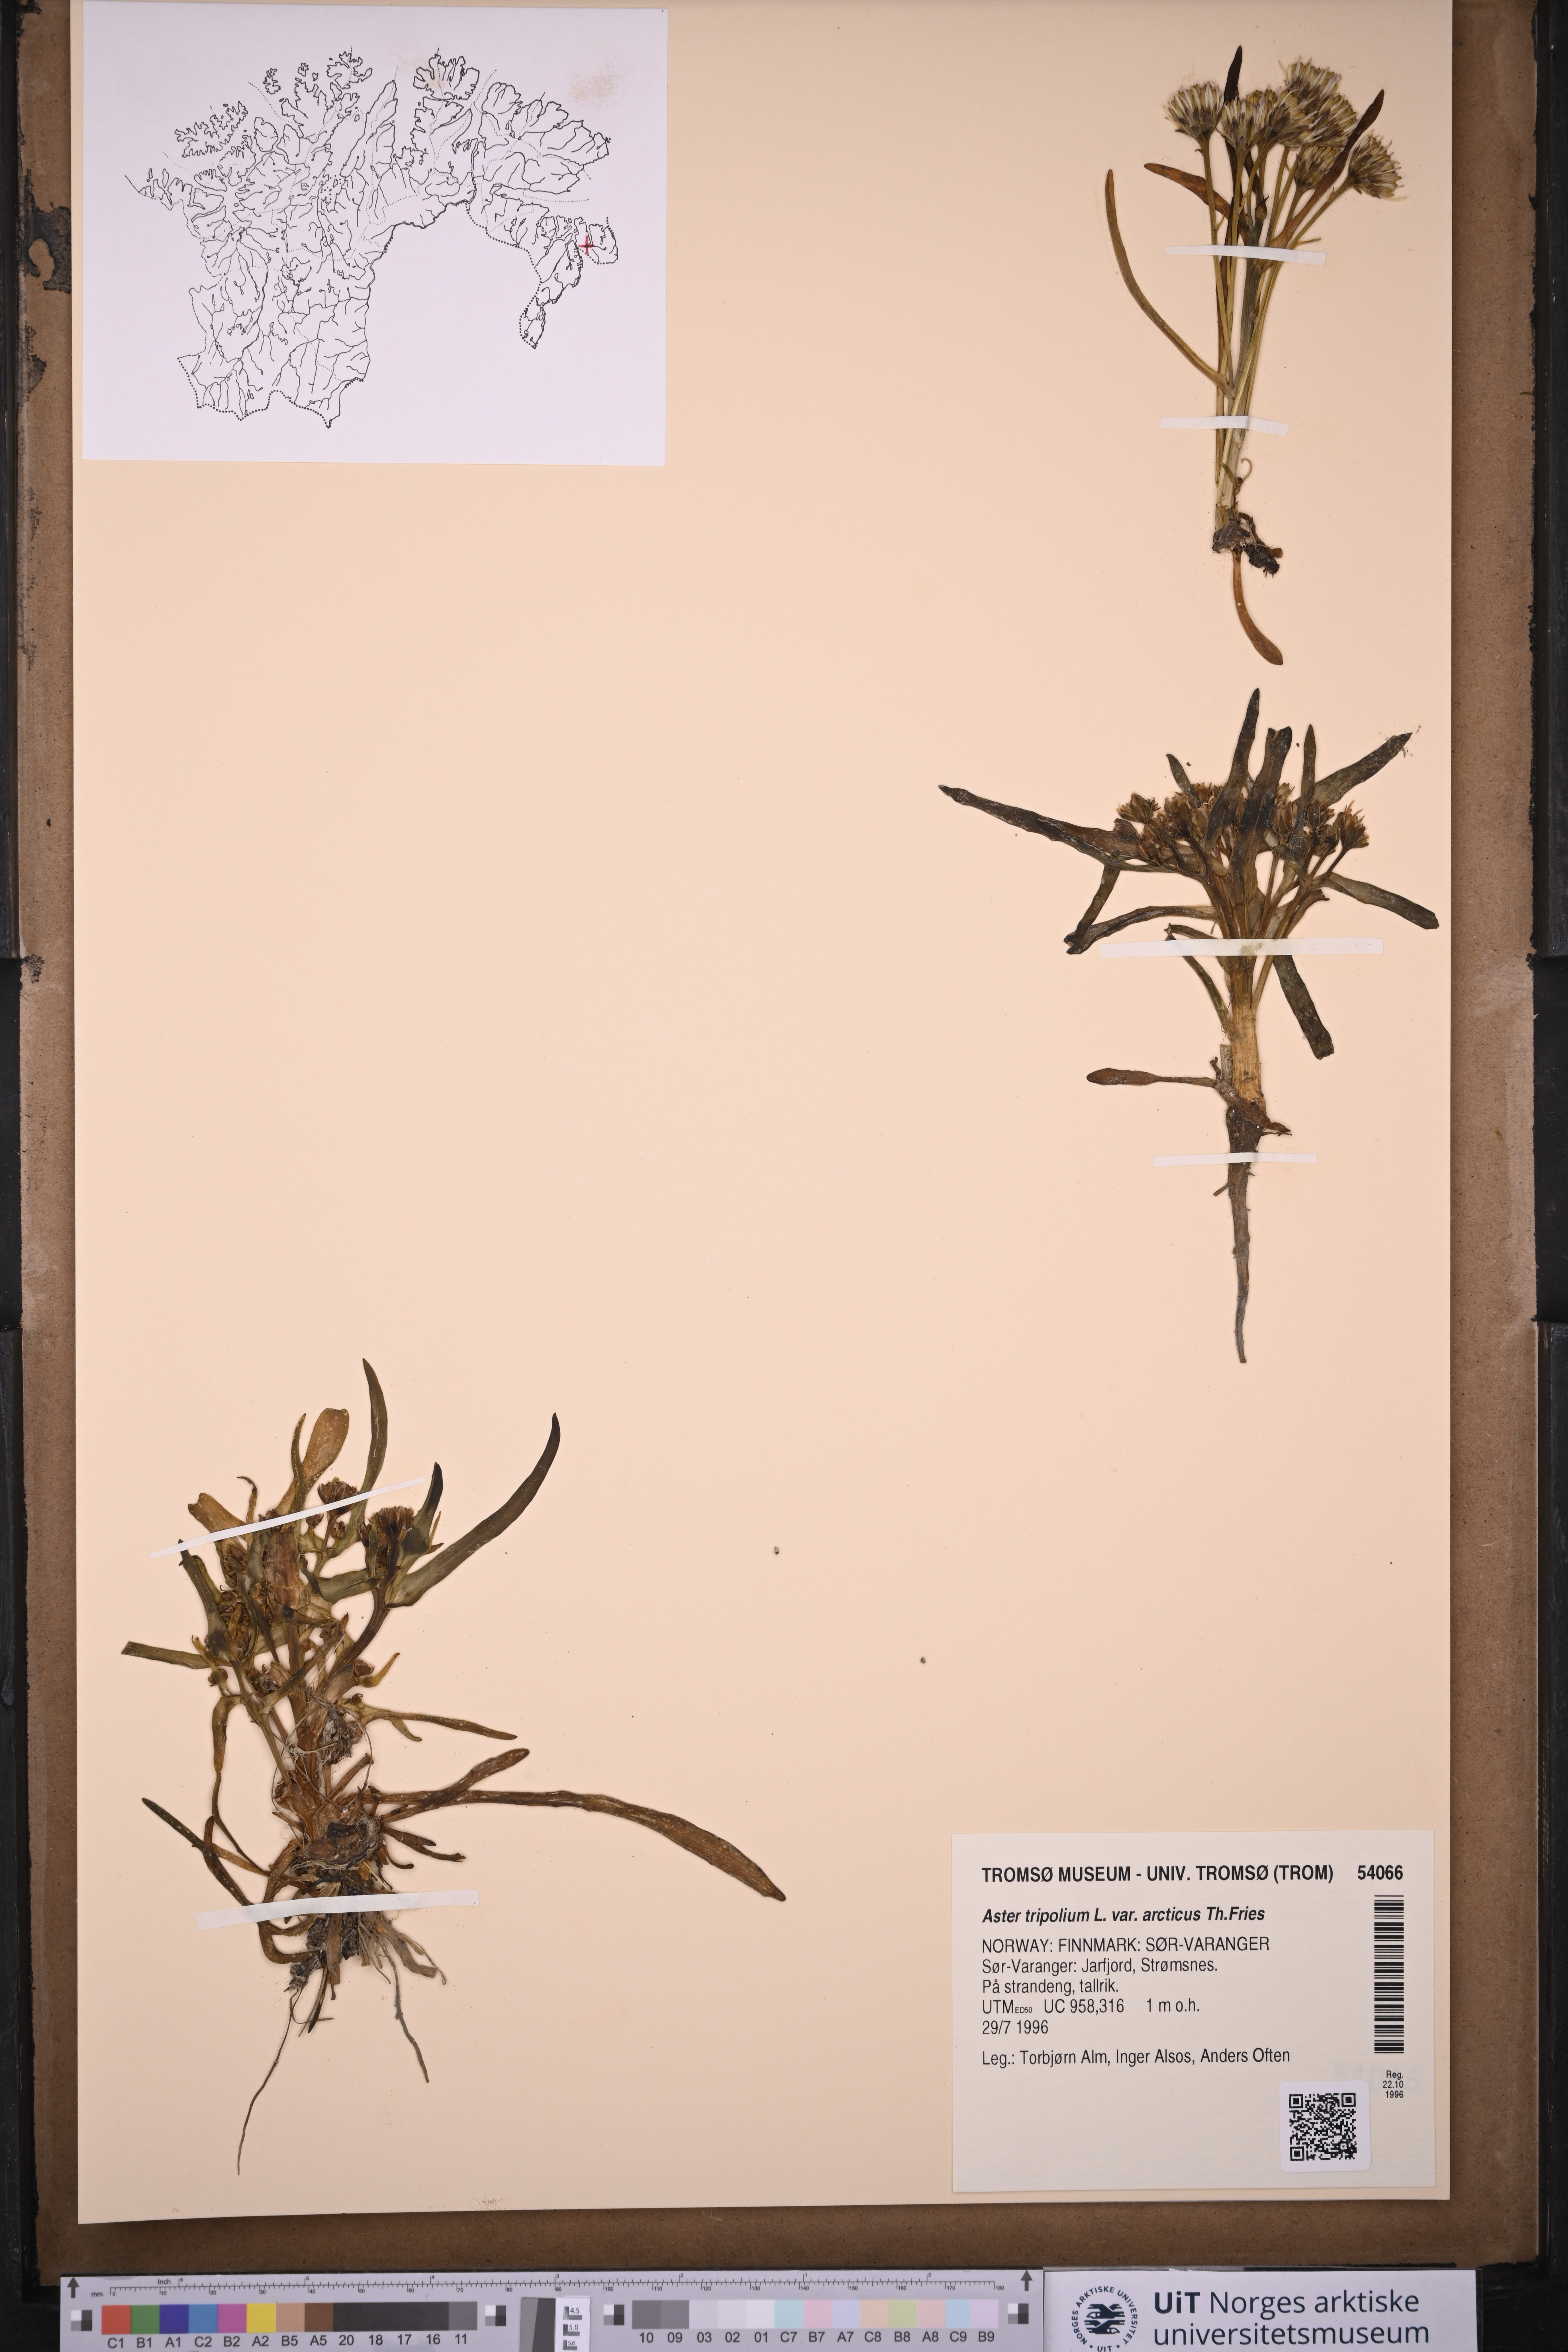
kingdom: Plantae
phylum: Tracheophyta
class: Magnoliopsida
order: Asterales
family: Asteraceae
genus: Tripolium
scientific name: Tripolium pannonicum
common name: Sea aster
